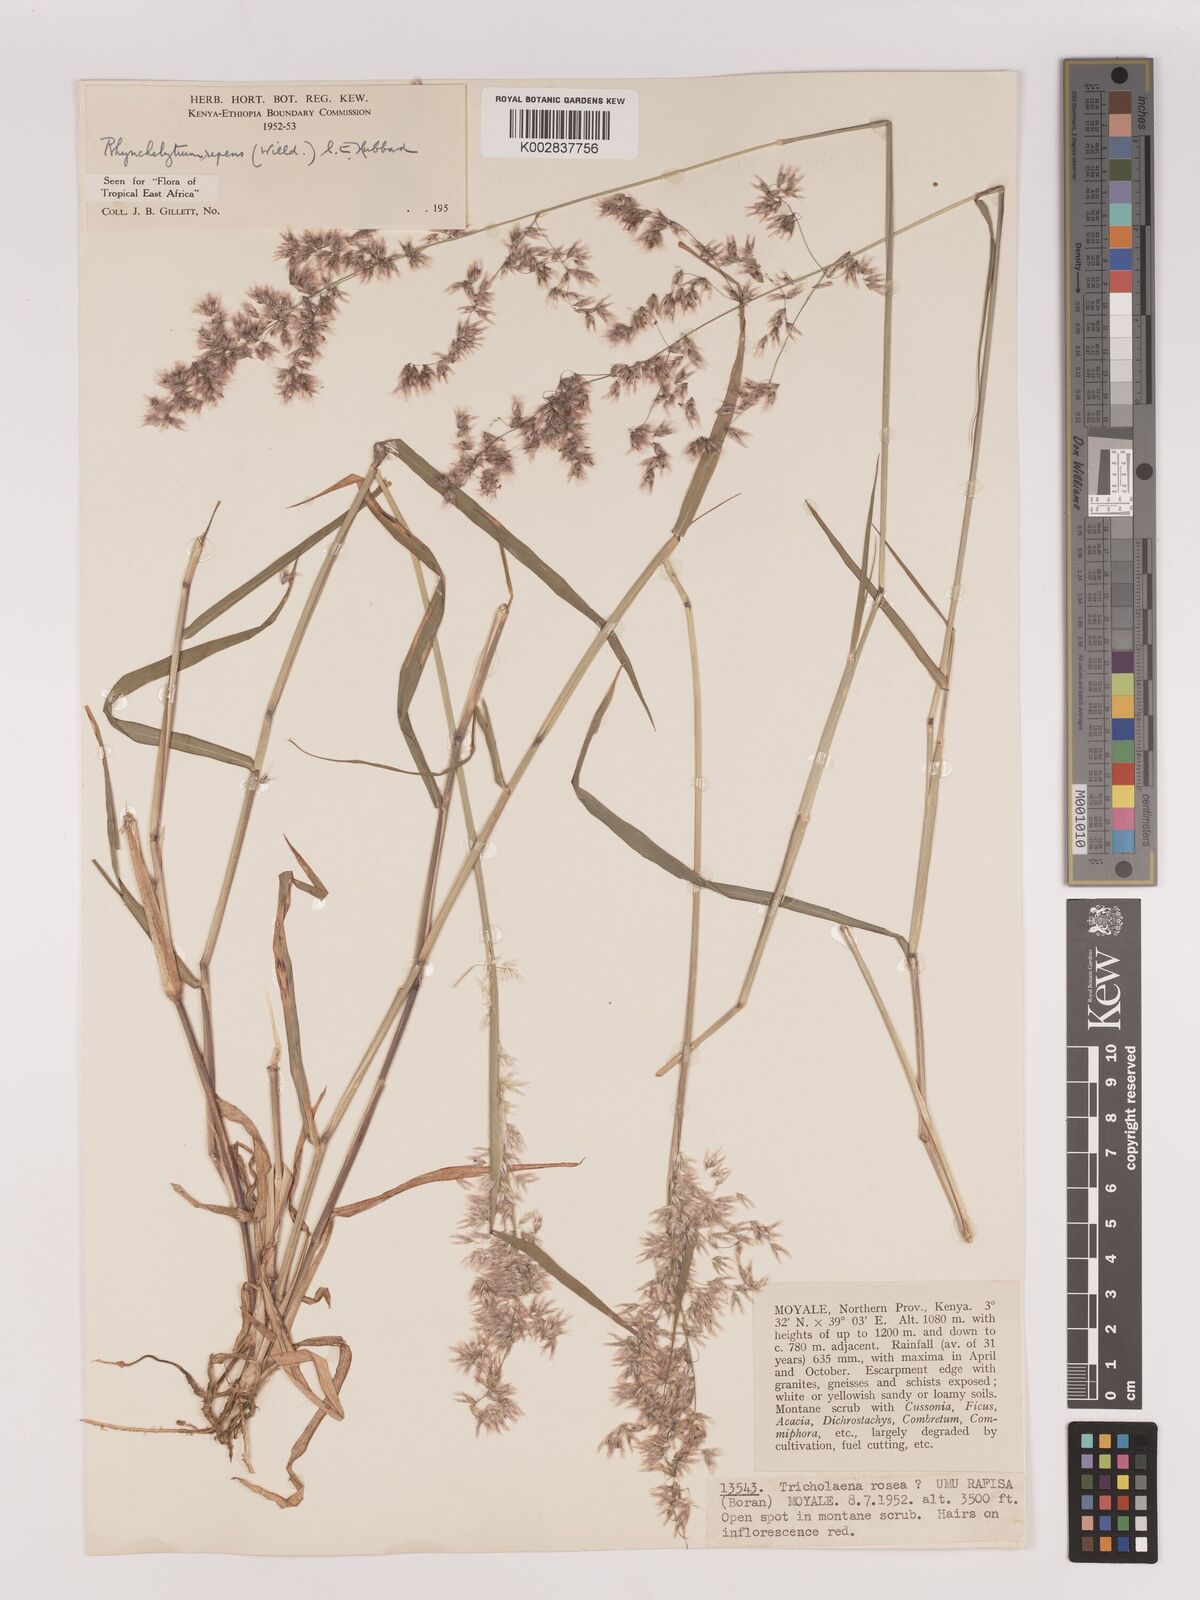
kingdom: Plantae
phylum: Tracheophyta
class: Liliopsida
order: Poales
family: Poaceae
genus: Melinis
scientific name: Melinis repens
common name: Rose natal grass
